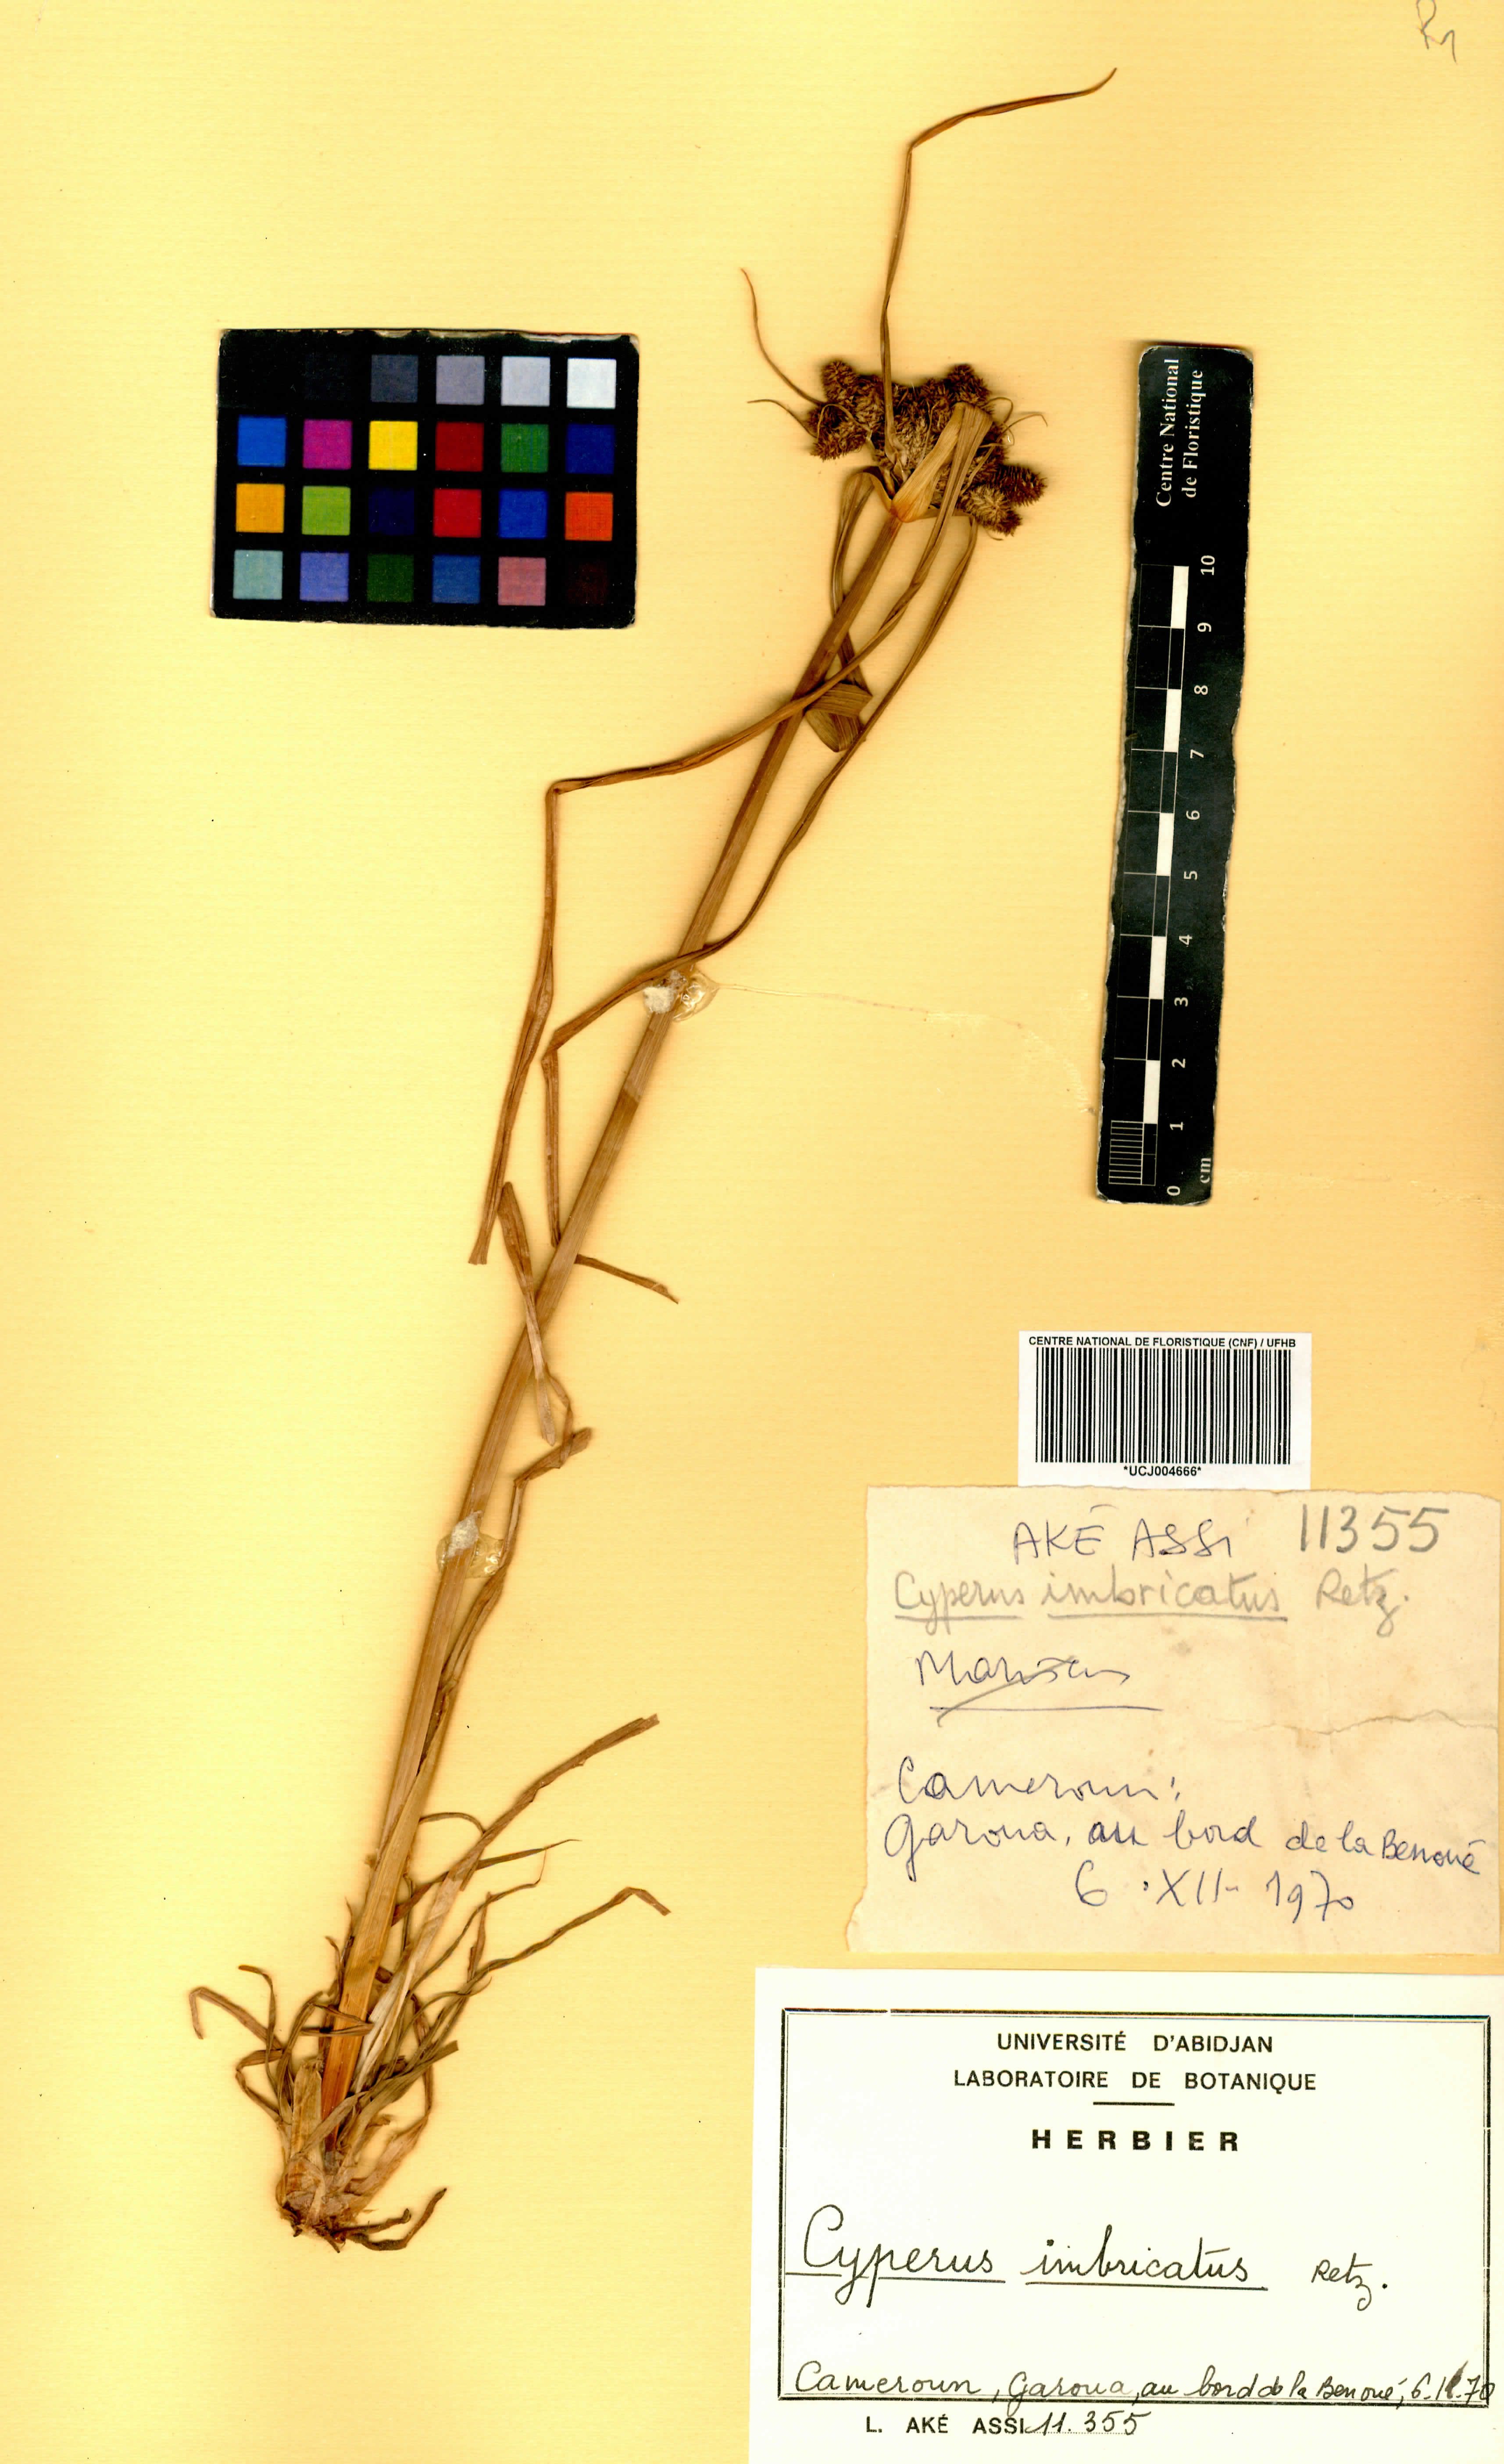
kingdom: Plantae
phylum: Tracheophyta
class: Liliopsida
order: Poales
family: Cyperaceae
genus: Cyperus
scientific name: Cyperus imbricatus
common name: Shingle flatsedge
